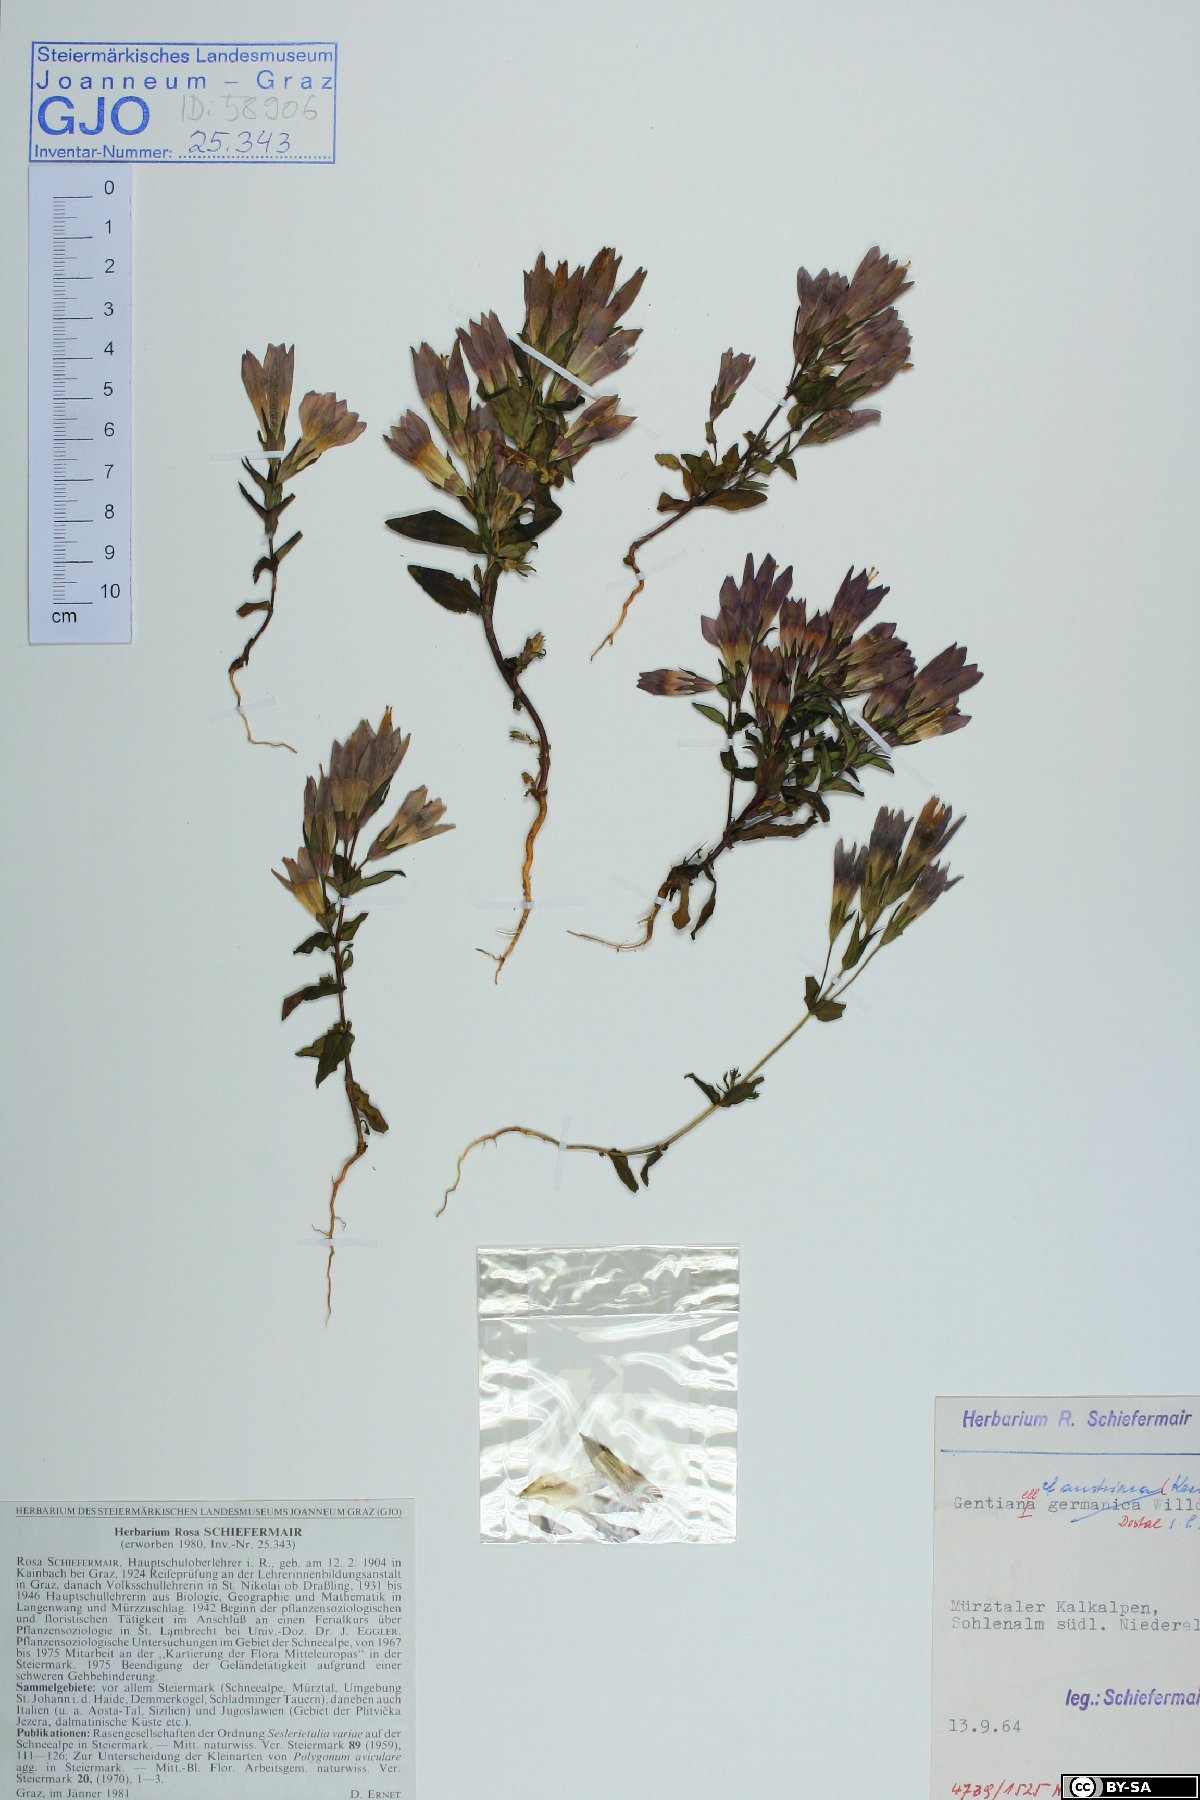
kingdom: Plantae
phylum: Tracheophyta
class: Magnoliopsida
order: Gentianales
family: Gentianaceae
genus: Gentianella
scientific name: Gentianella austriaca
